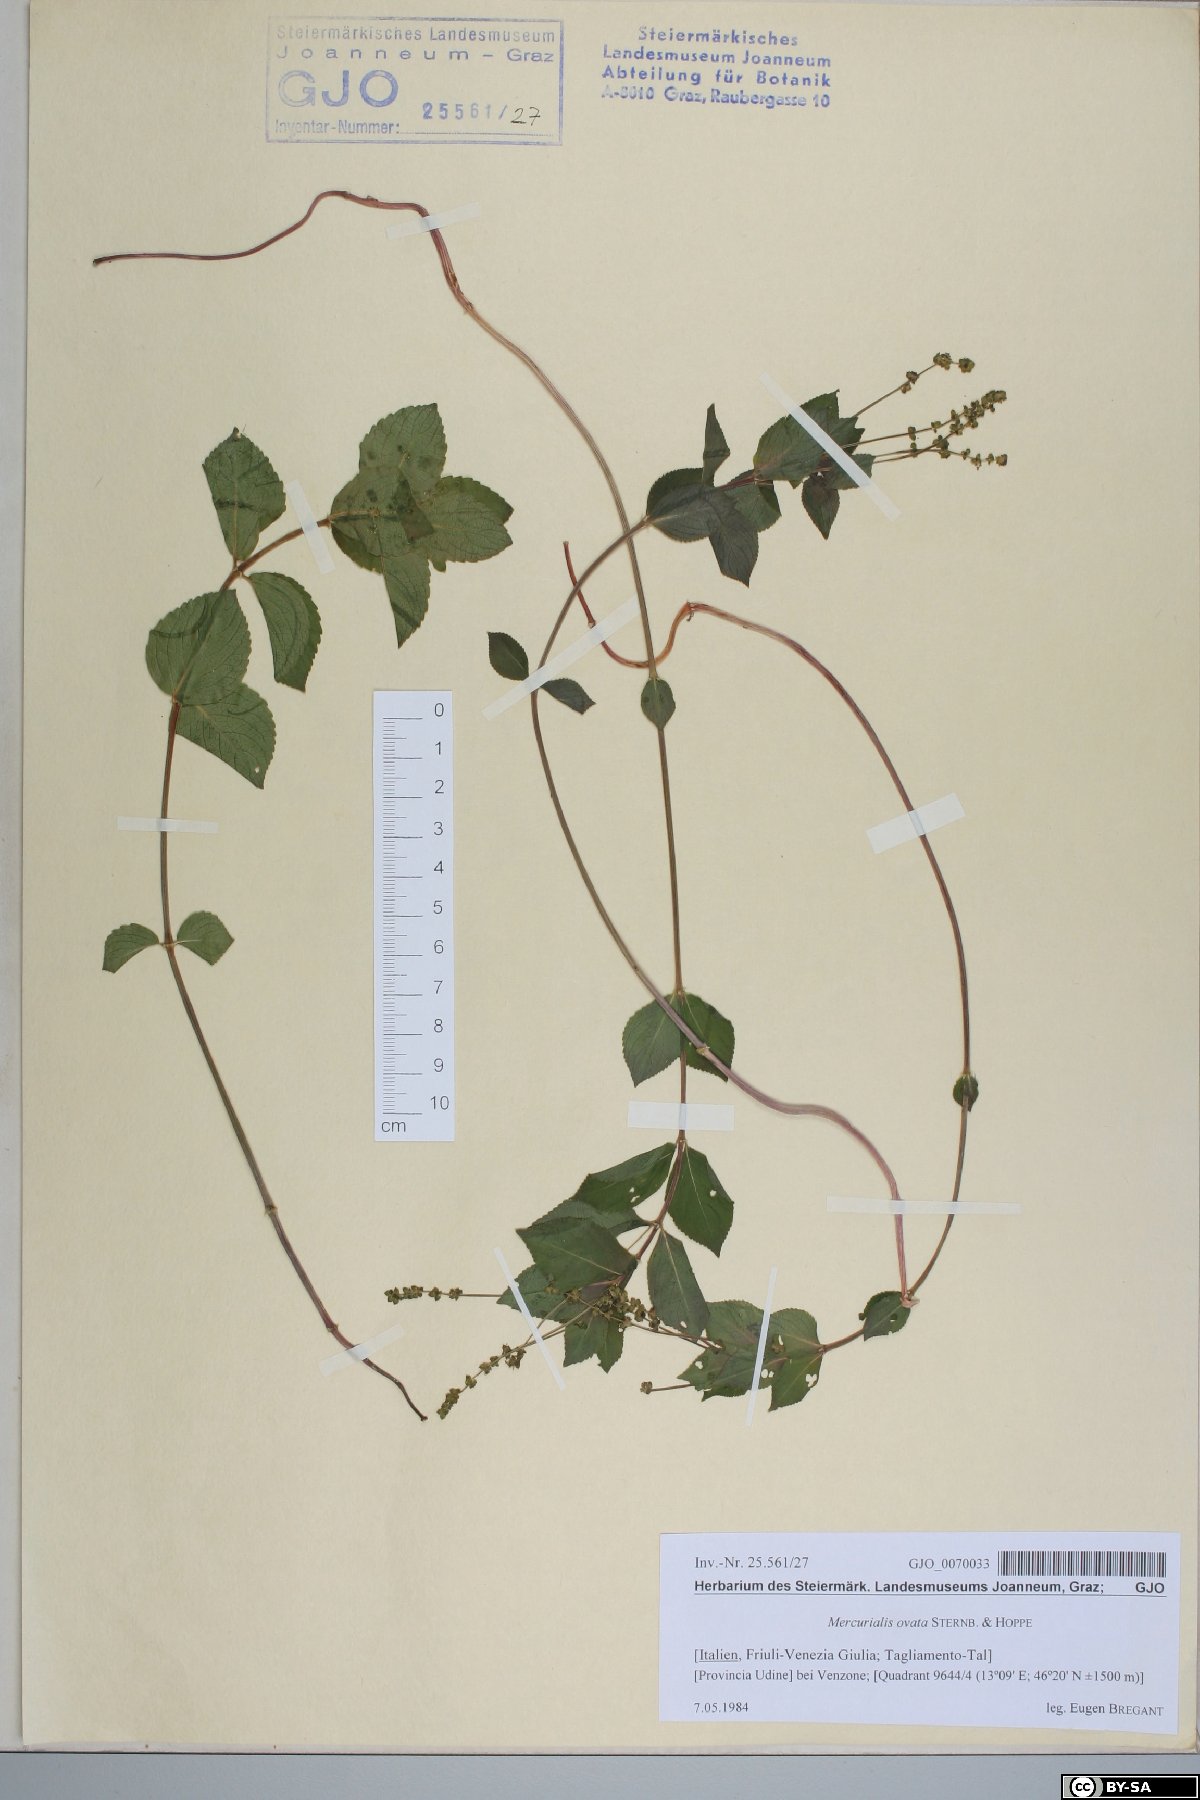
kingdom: Plantae
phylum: Tracheophyta
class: Magnoliopsida
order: Malpighiales
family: Euphorbiaceae
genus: Mercurialis
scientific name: Mercurialis ovata
